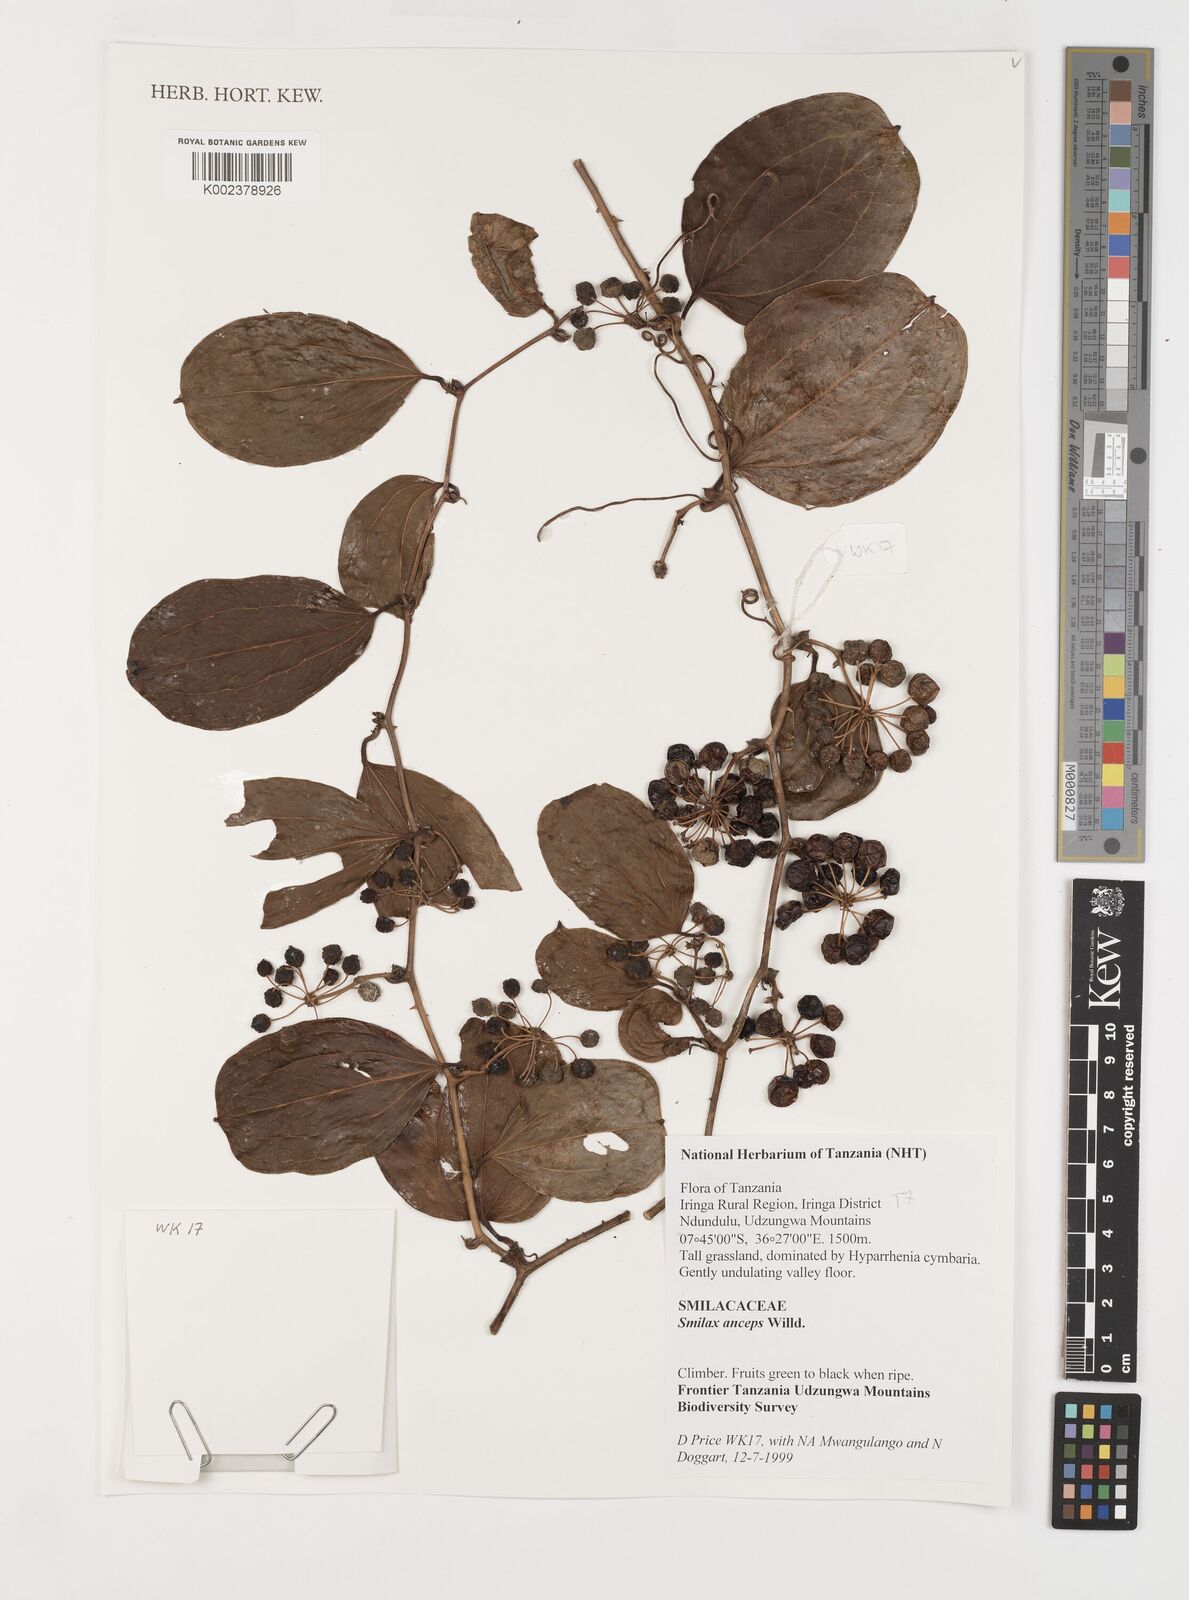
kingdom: Plantae
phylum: Tracheophyta
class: Liliopsida
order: Liliales
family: Smilacaceae
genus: Smilax
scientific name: Smilax anceps
